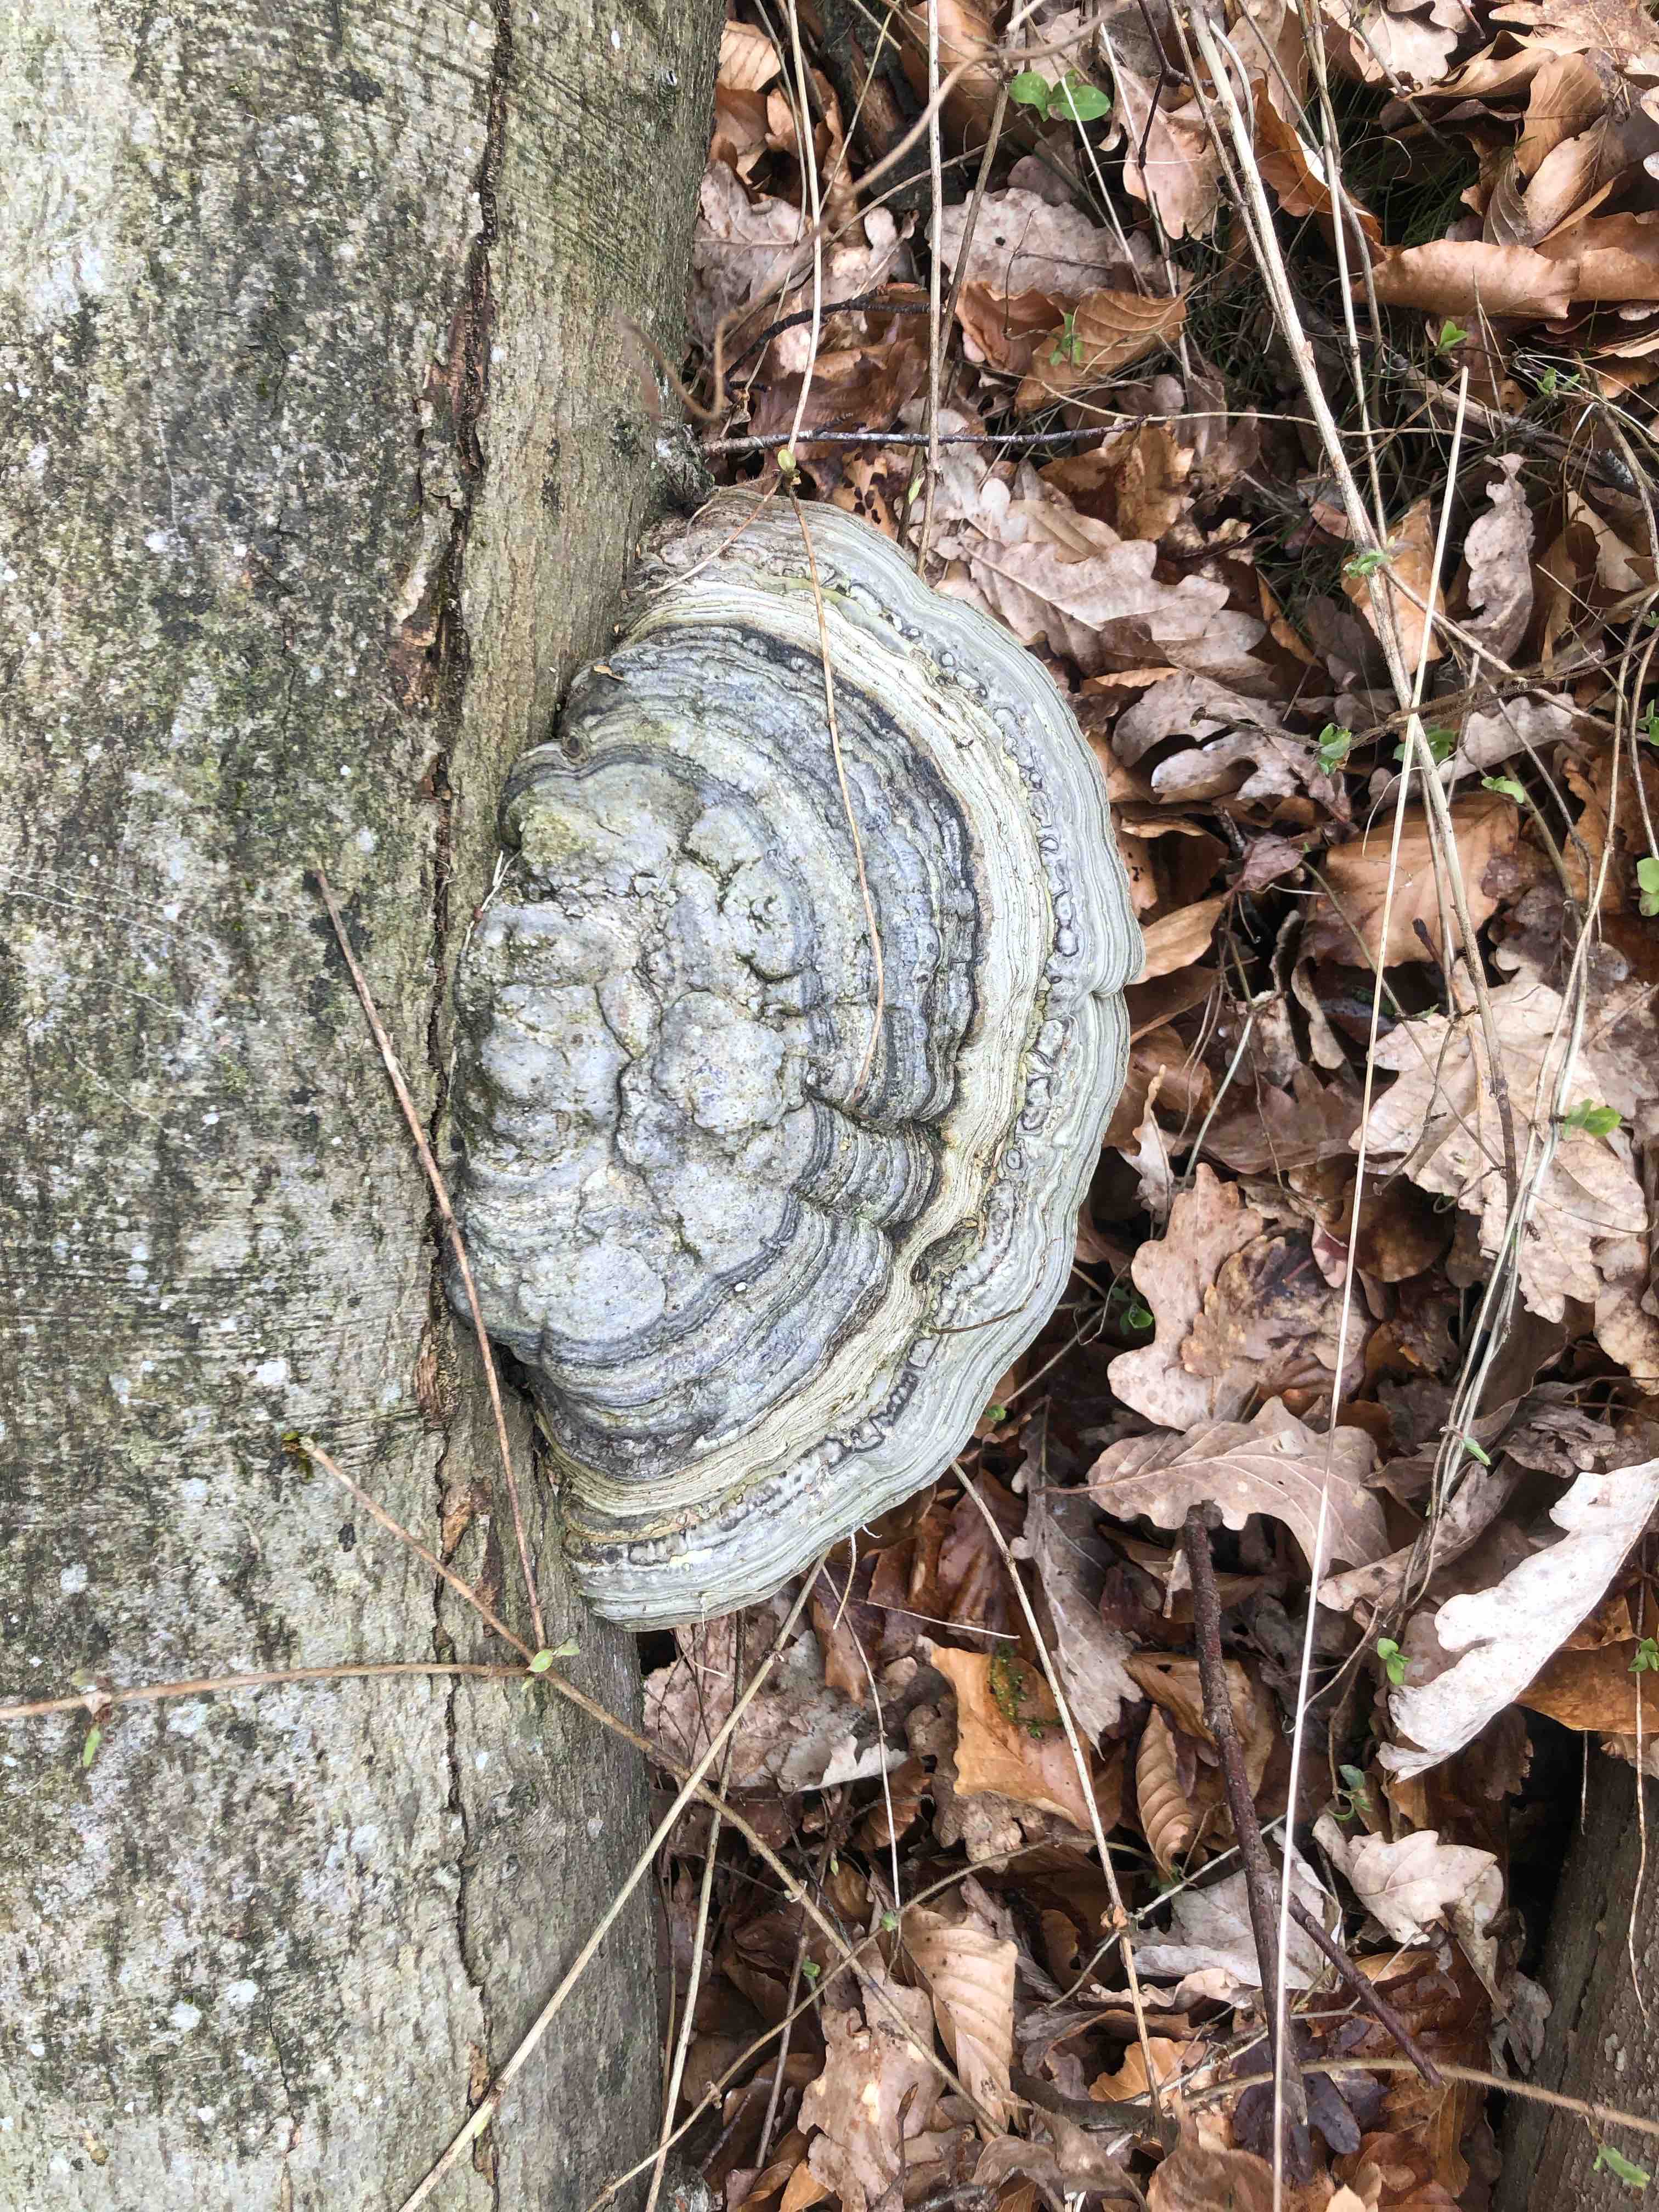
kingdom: Fungi
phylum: Basidiomycota
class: Agaricomycetes
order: Polyporales
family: Polyporaceae
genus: Fomes
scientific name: Fomes fomentarius
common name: tøndersvamp
